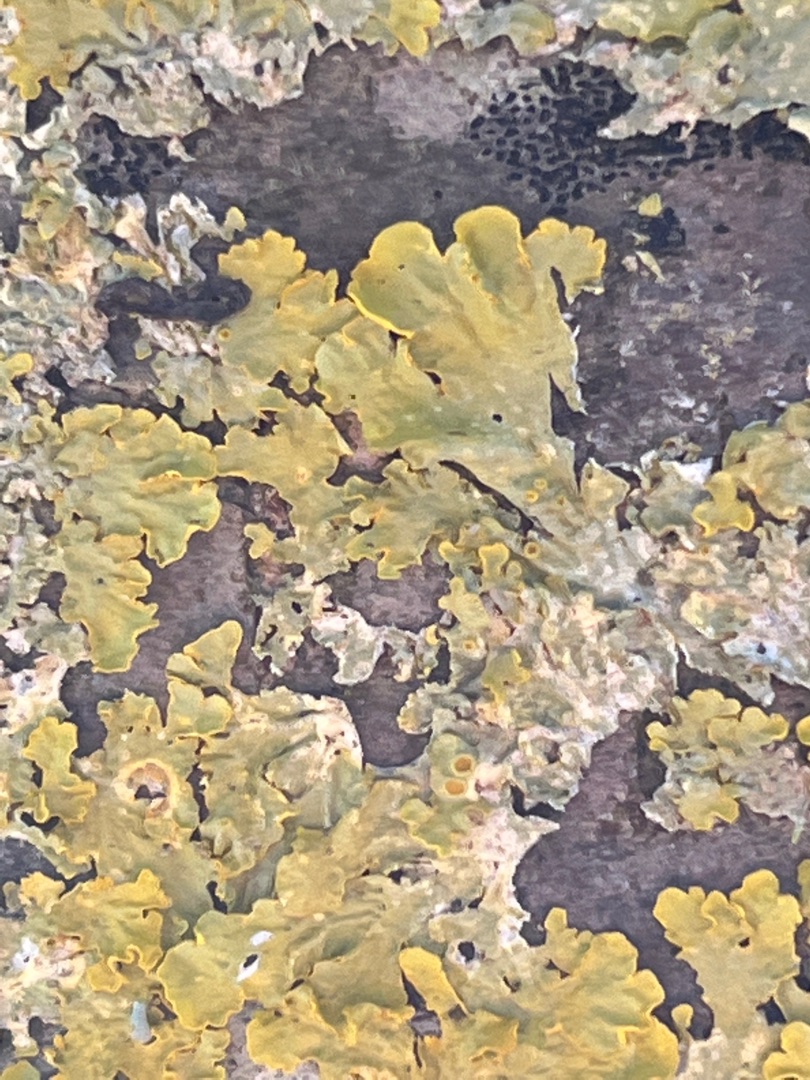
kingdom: Fungi
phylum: Ascomycota
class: Lecanoromycetes
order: Teloschistales
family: Teloschistaceae
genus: Xanthoria
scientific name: Xanthoria parietina
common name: Almindelig væggelav
